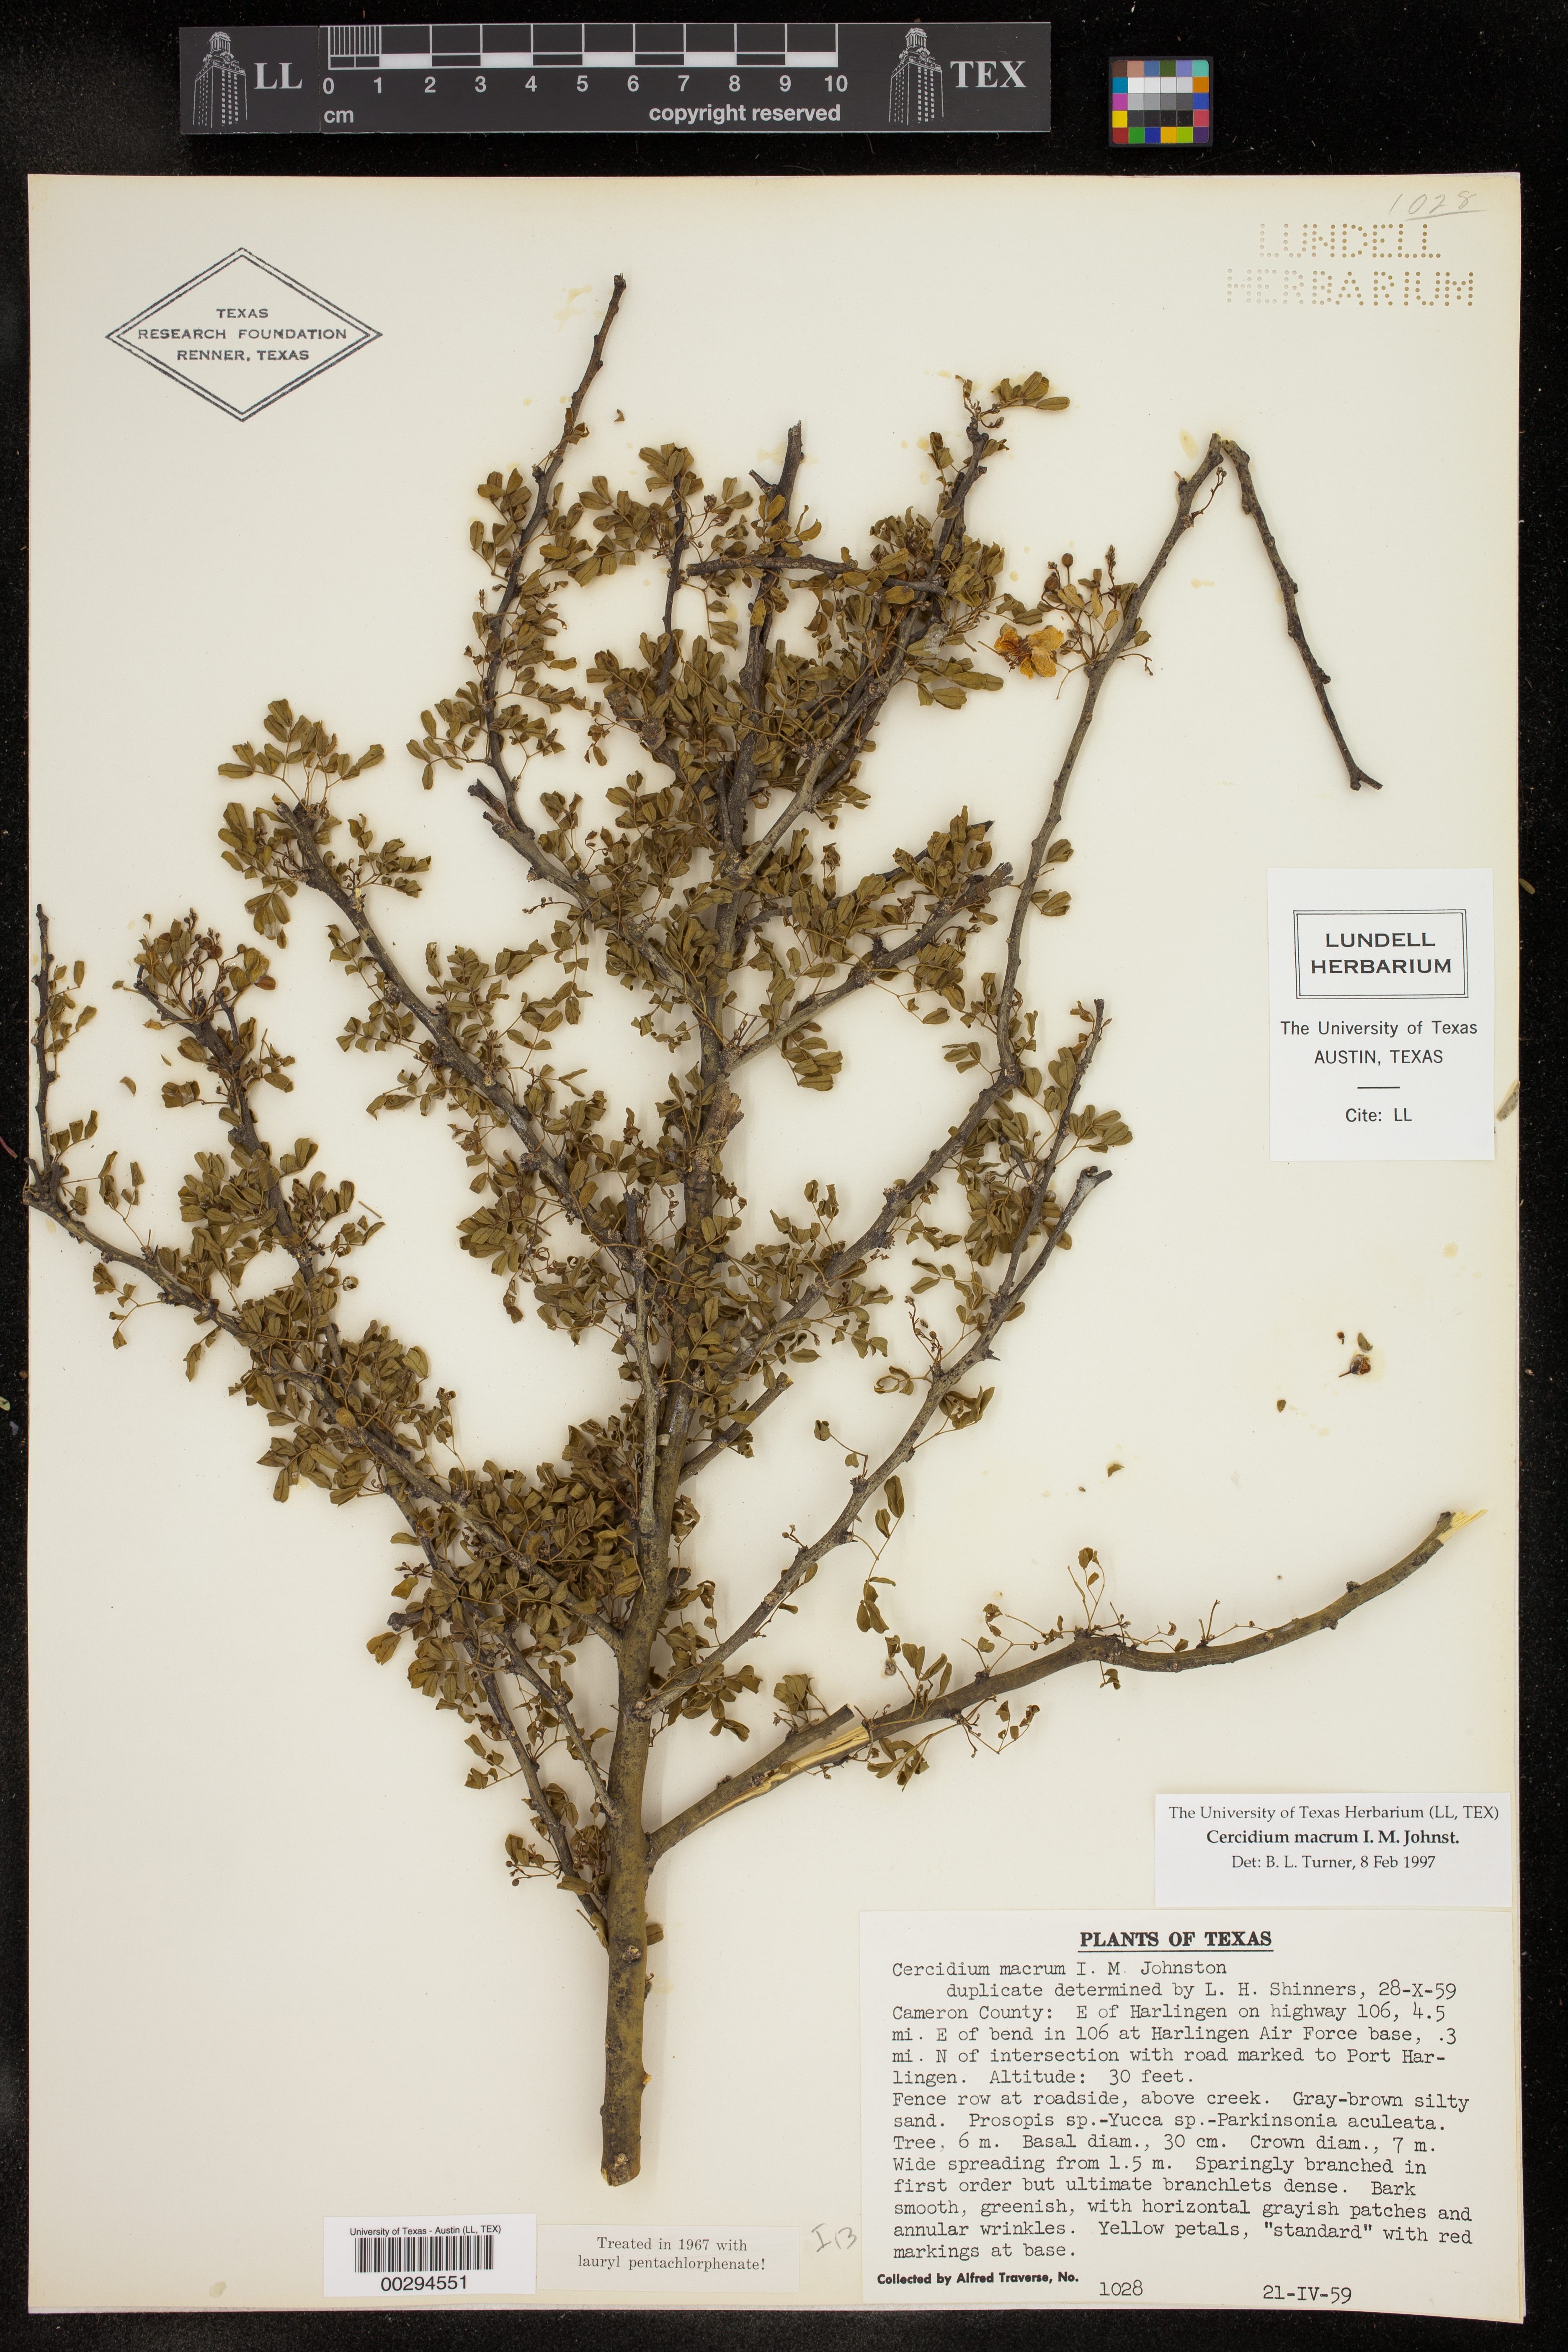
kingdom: Plantae
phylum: Tracheophyta
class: Magnoliopsida
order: Fabales
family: Fabaceae
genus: Parkinsonia
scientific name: Parkinsonia texana
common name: Texas paloverde
